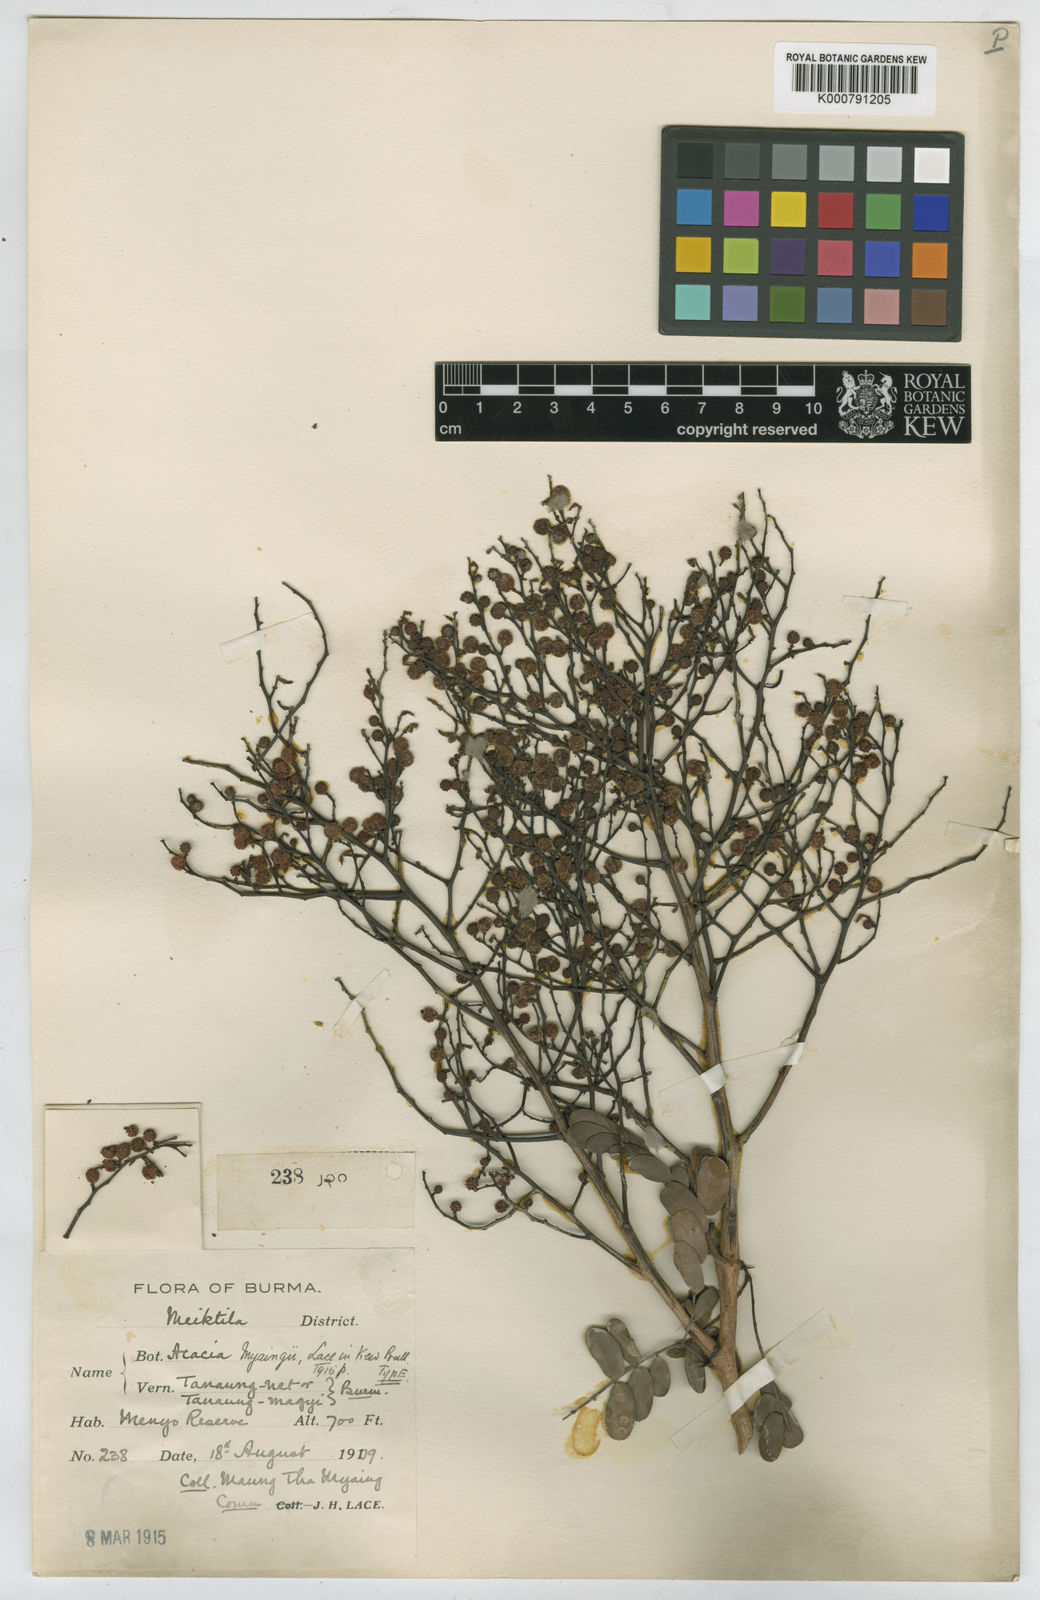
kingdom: Plantae
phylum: Tracheophyta
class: Magnoliopsida
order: Fabales
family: Fabaceae
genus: Vachellia
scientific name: Vachellia myaingii
